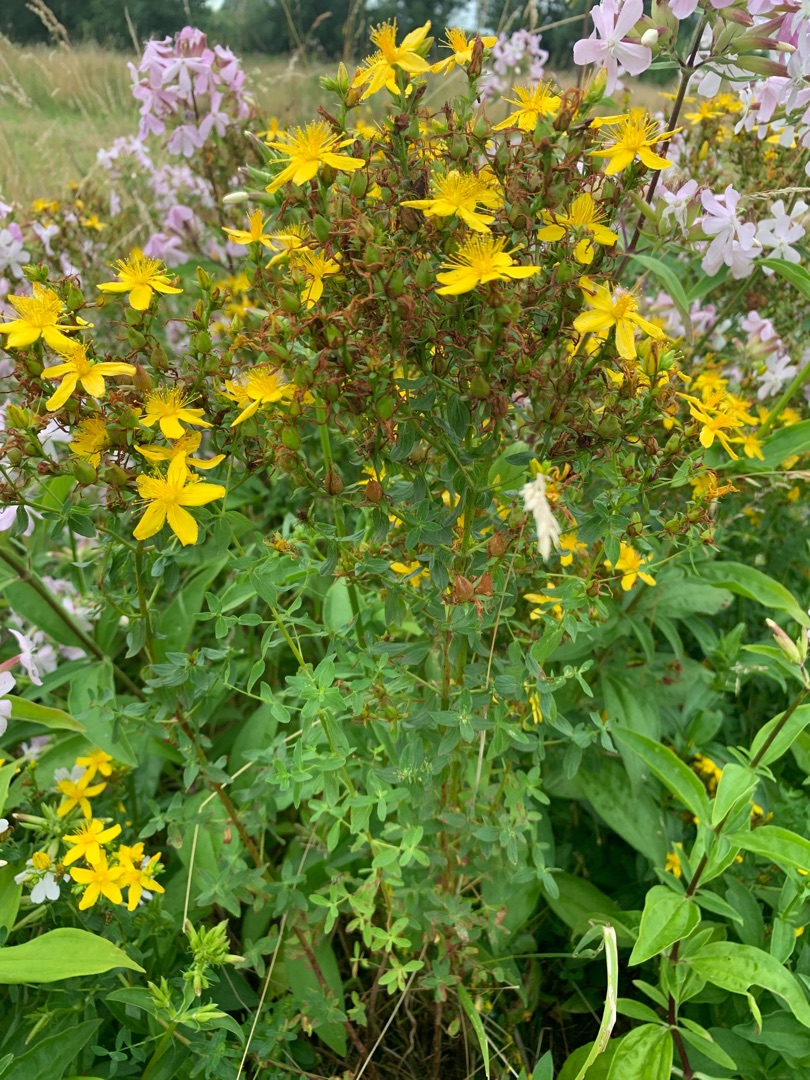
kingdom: Plantae
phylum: Tracheophyta
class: Magnoliopsida
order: Malpighiales
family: Hypericaceae
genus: Hypericum
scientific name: Hypericum perforatum
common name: Prikbladet perikon
